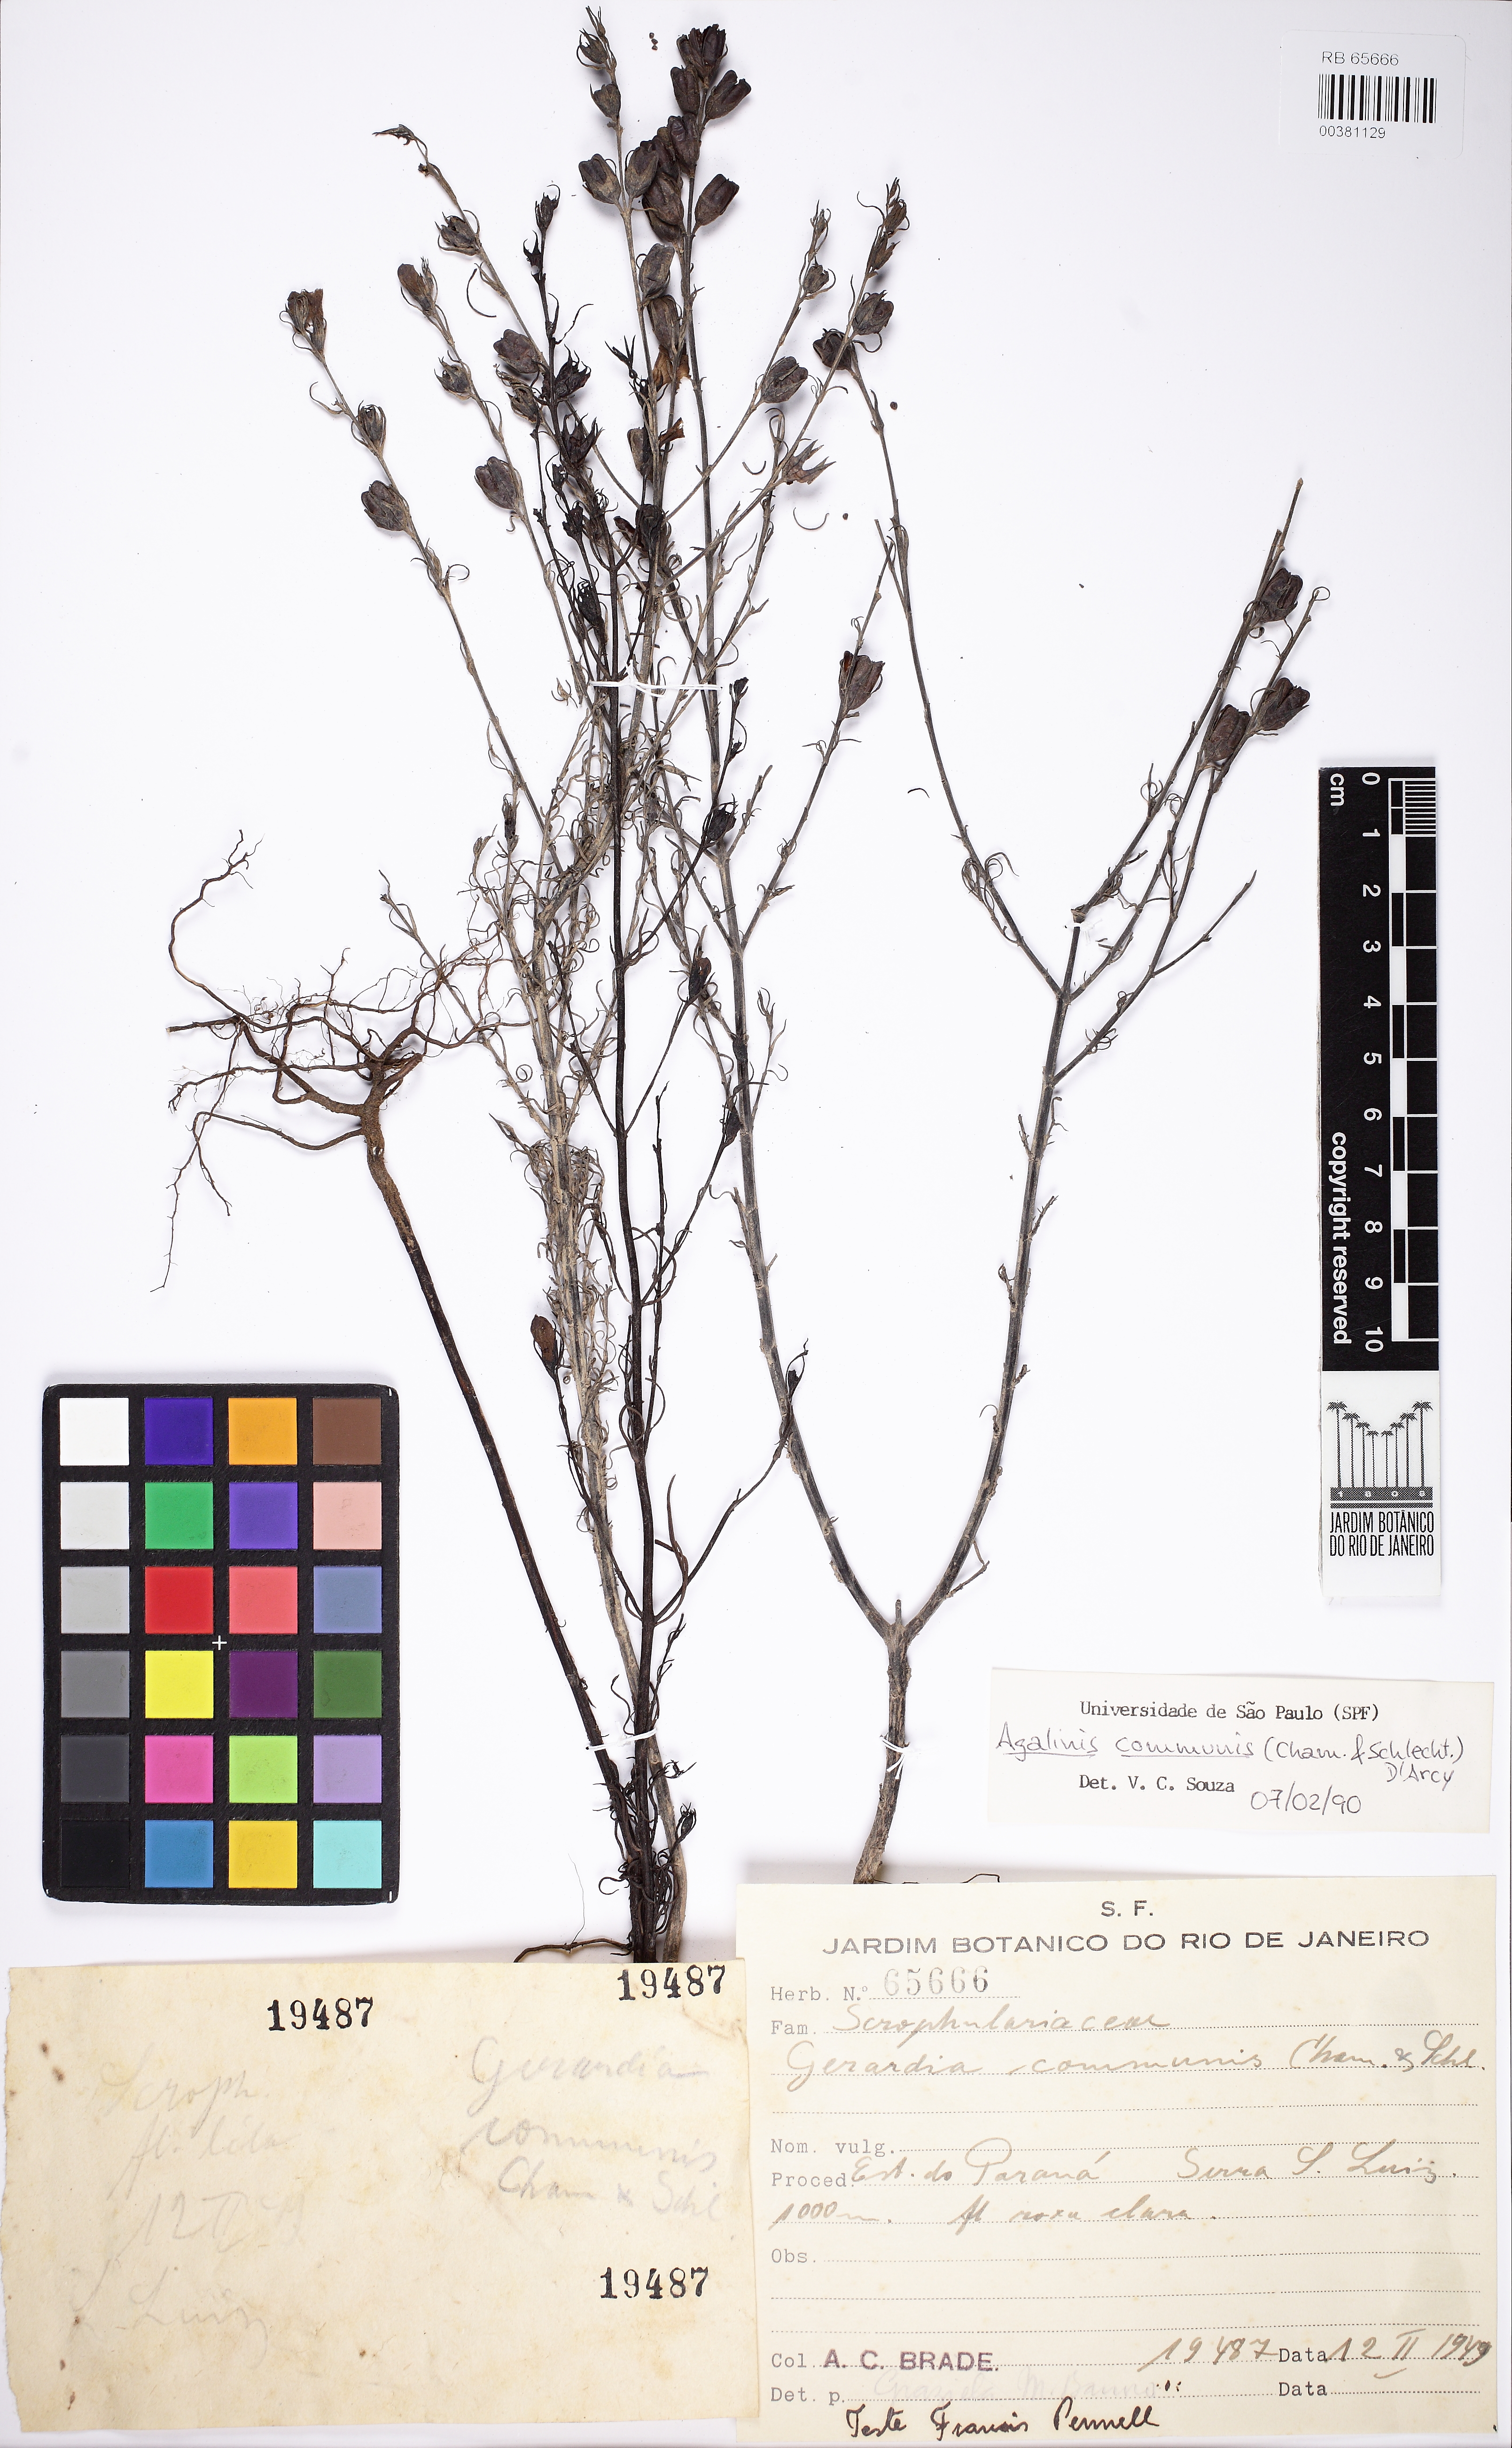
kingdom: Plantae
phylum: Tracheophyta
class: Magnoliopsida
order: Lamiales
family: Scrophulariaceae
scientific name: Scrophulariaceae
